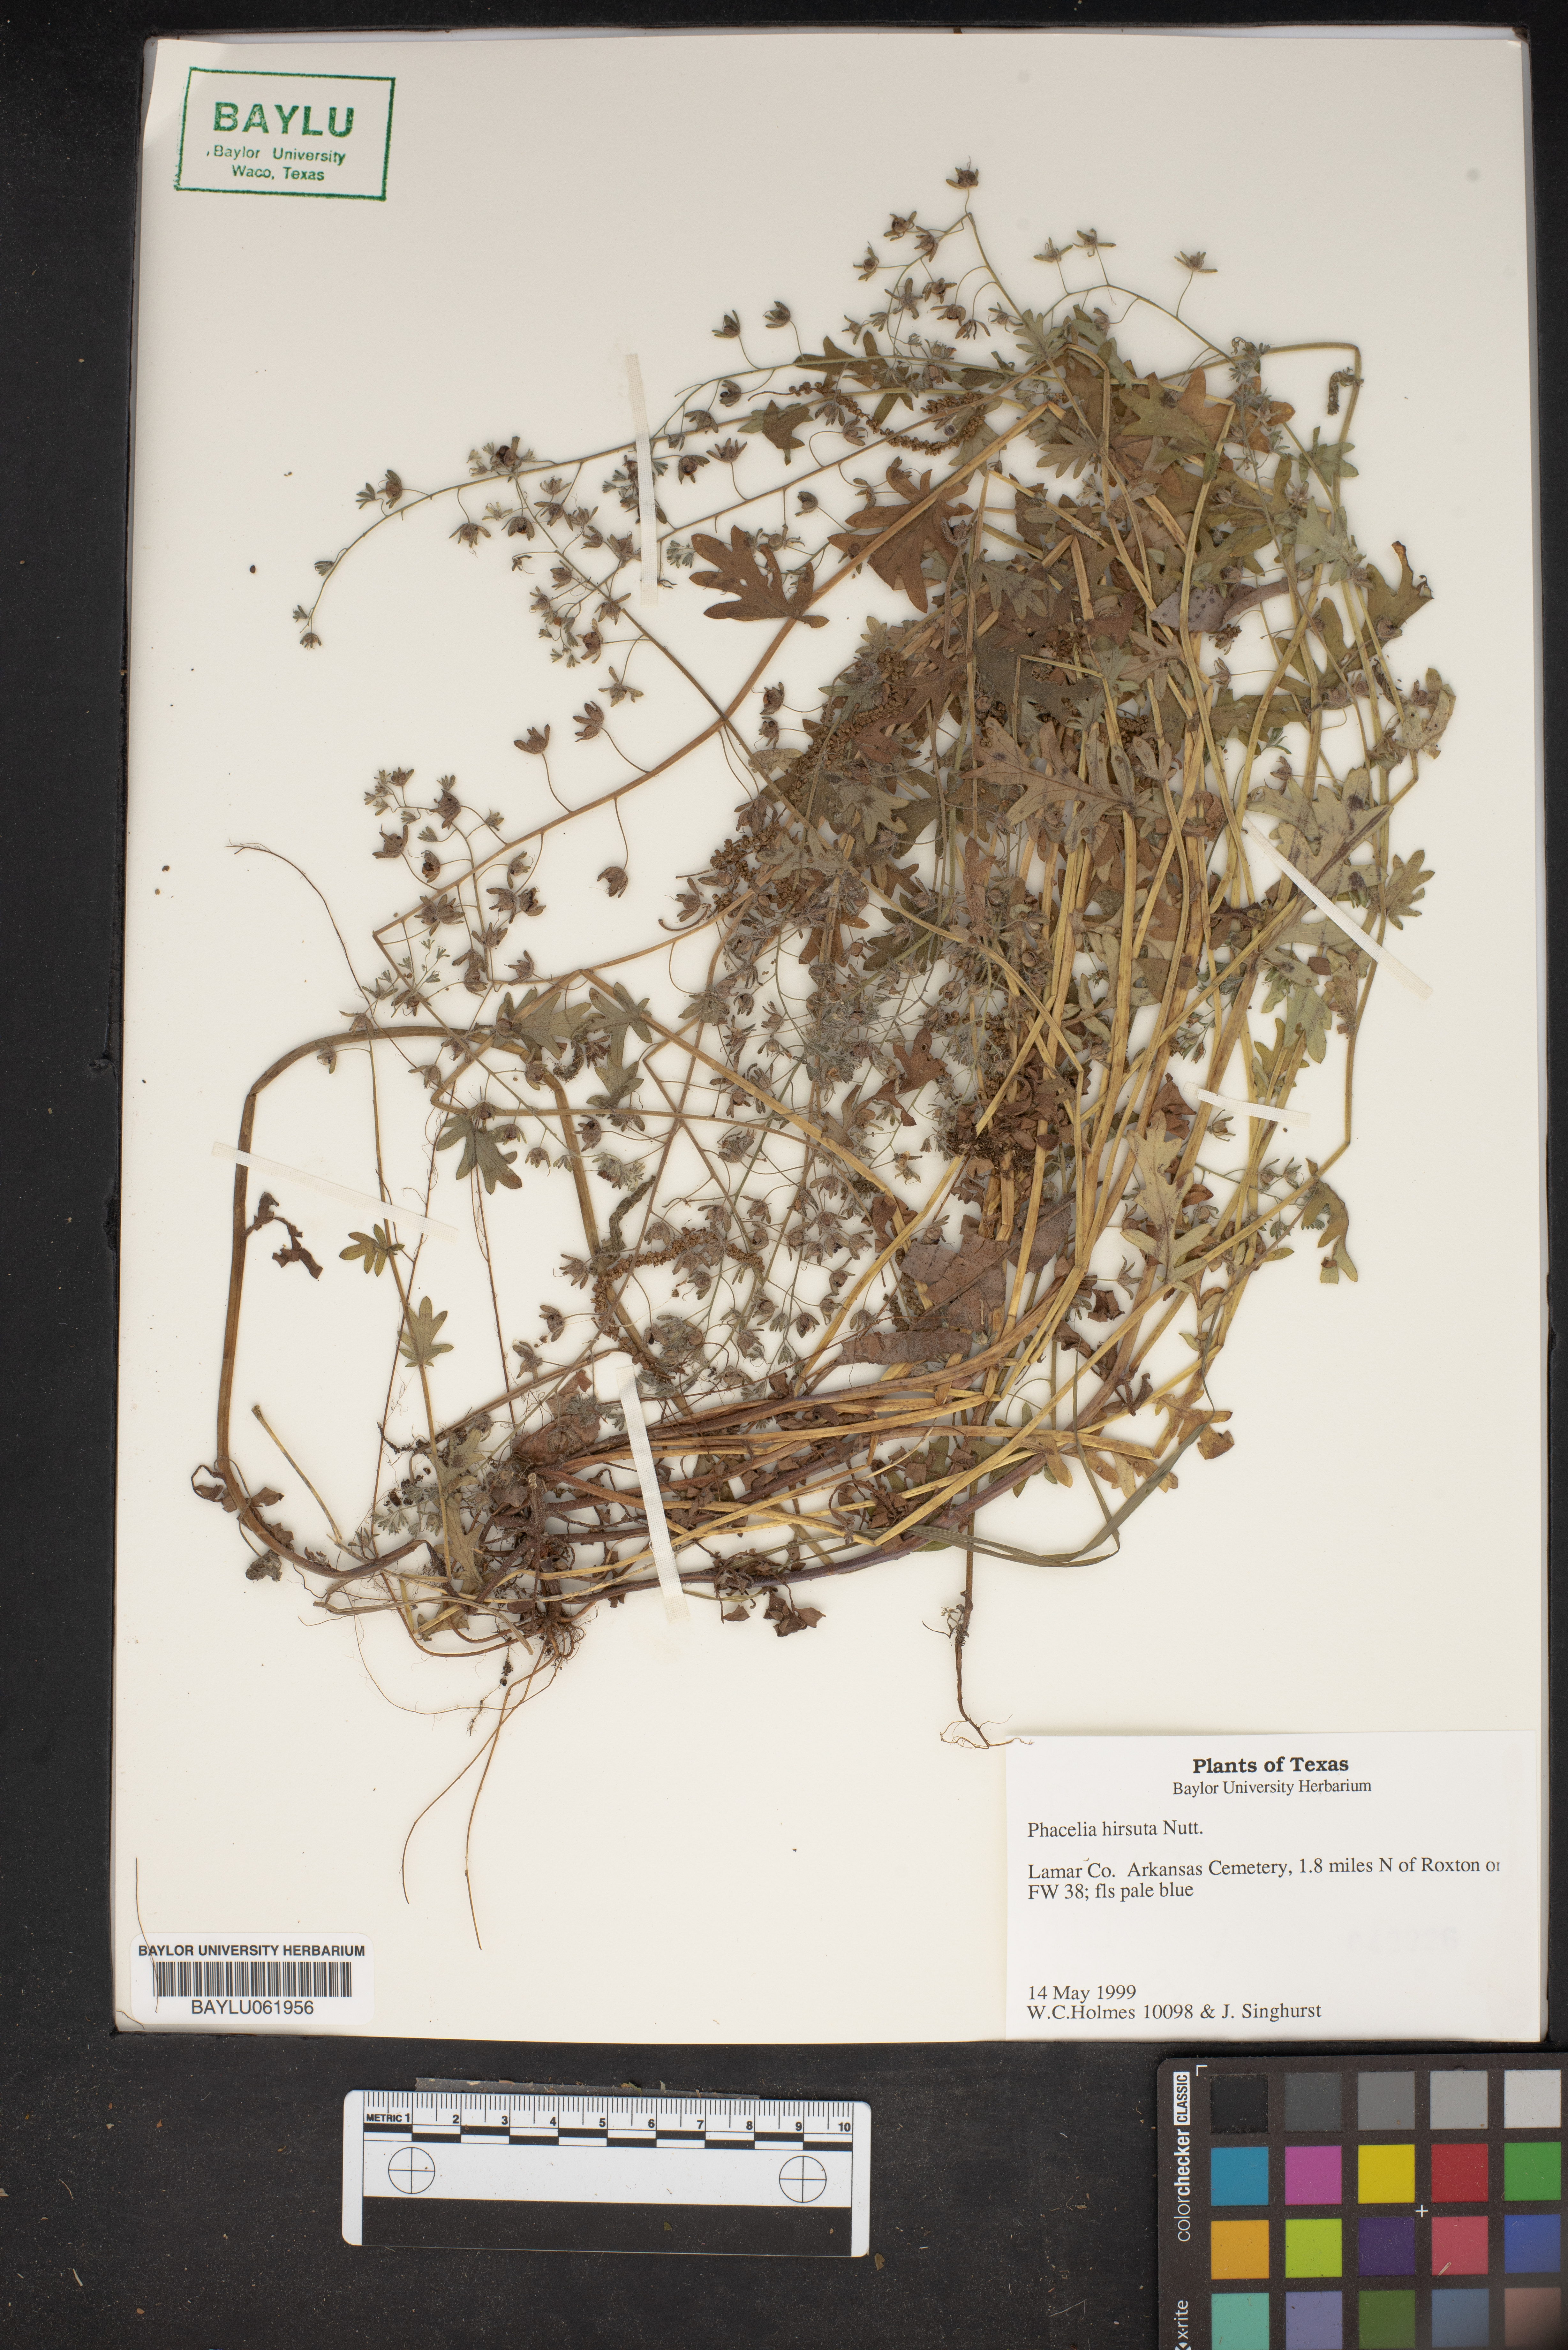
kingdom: Plantae
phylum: Tracheophyta
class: Magnoliopsida
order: Boraginales
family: Hydrophyllaceae
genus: Phacelia
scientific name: Phacelia hirsuta
